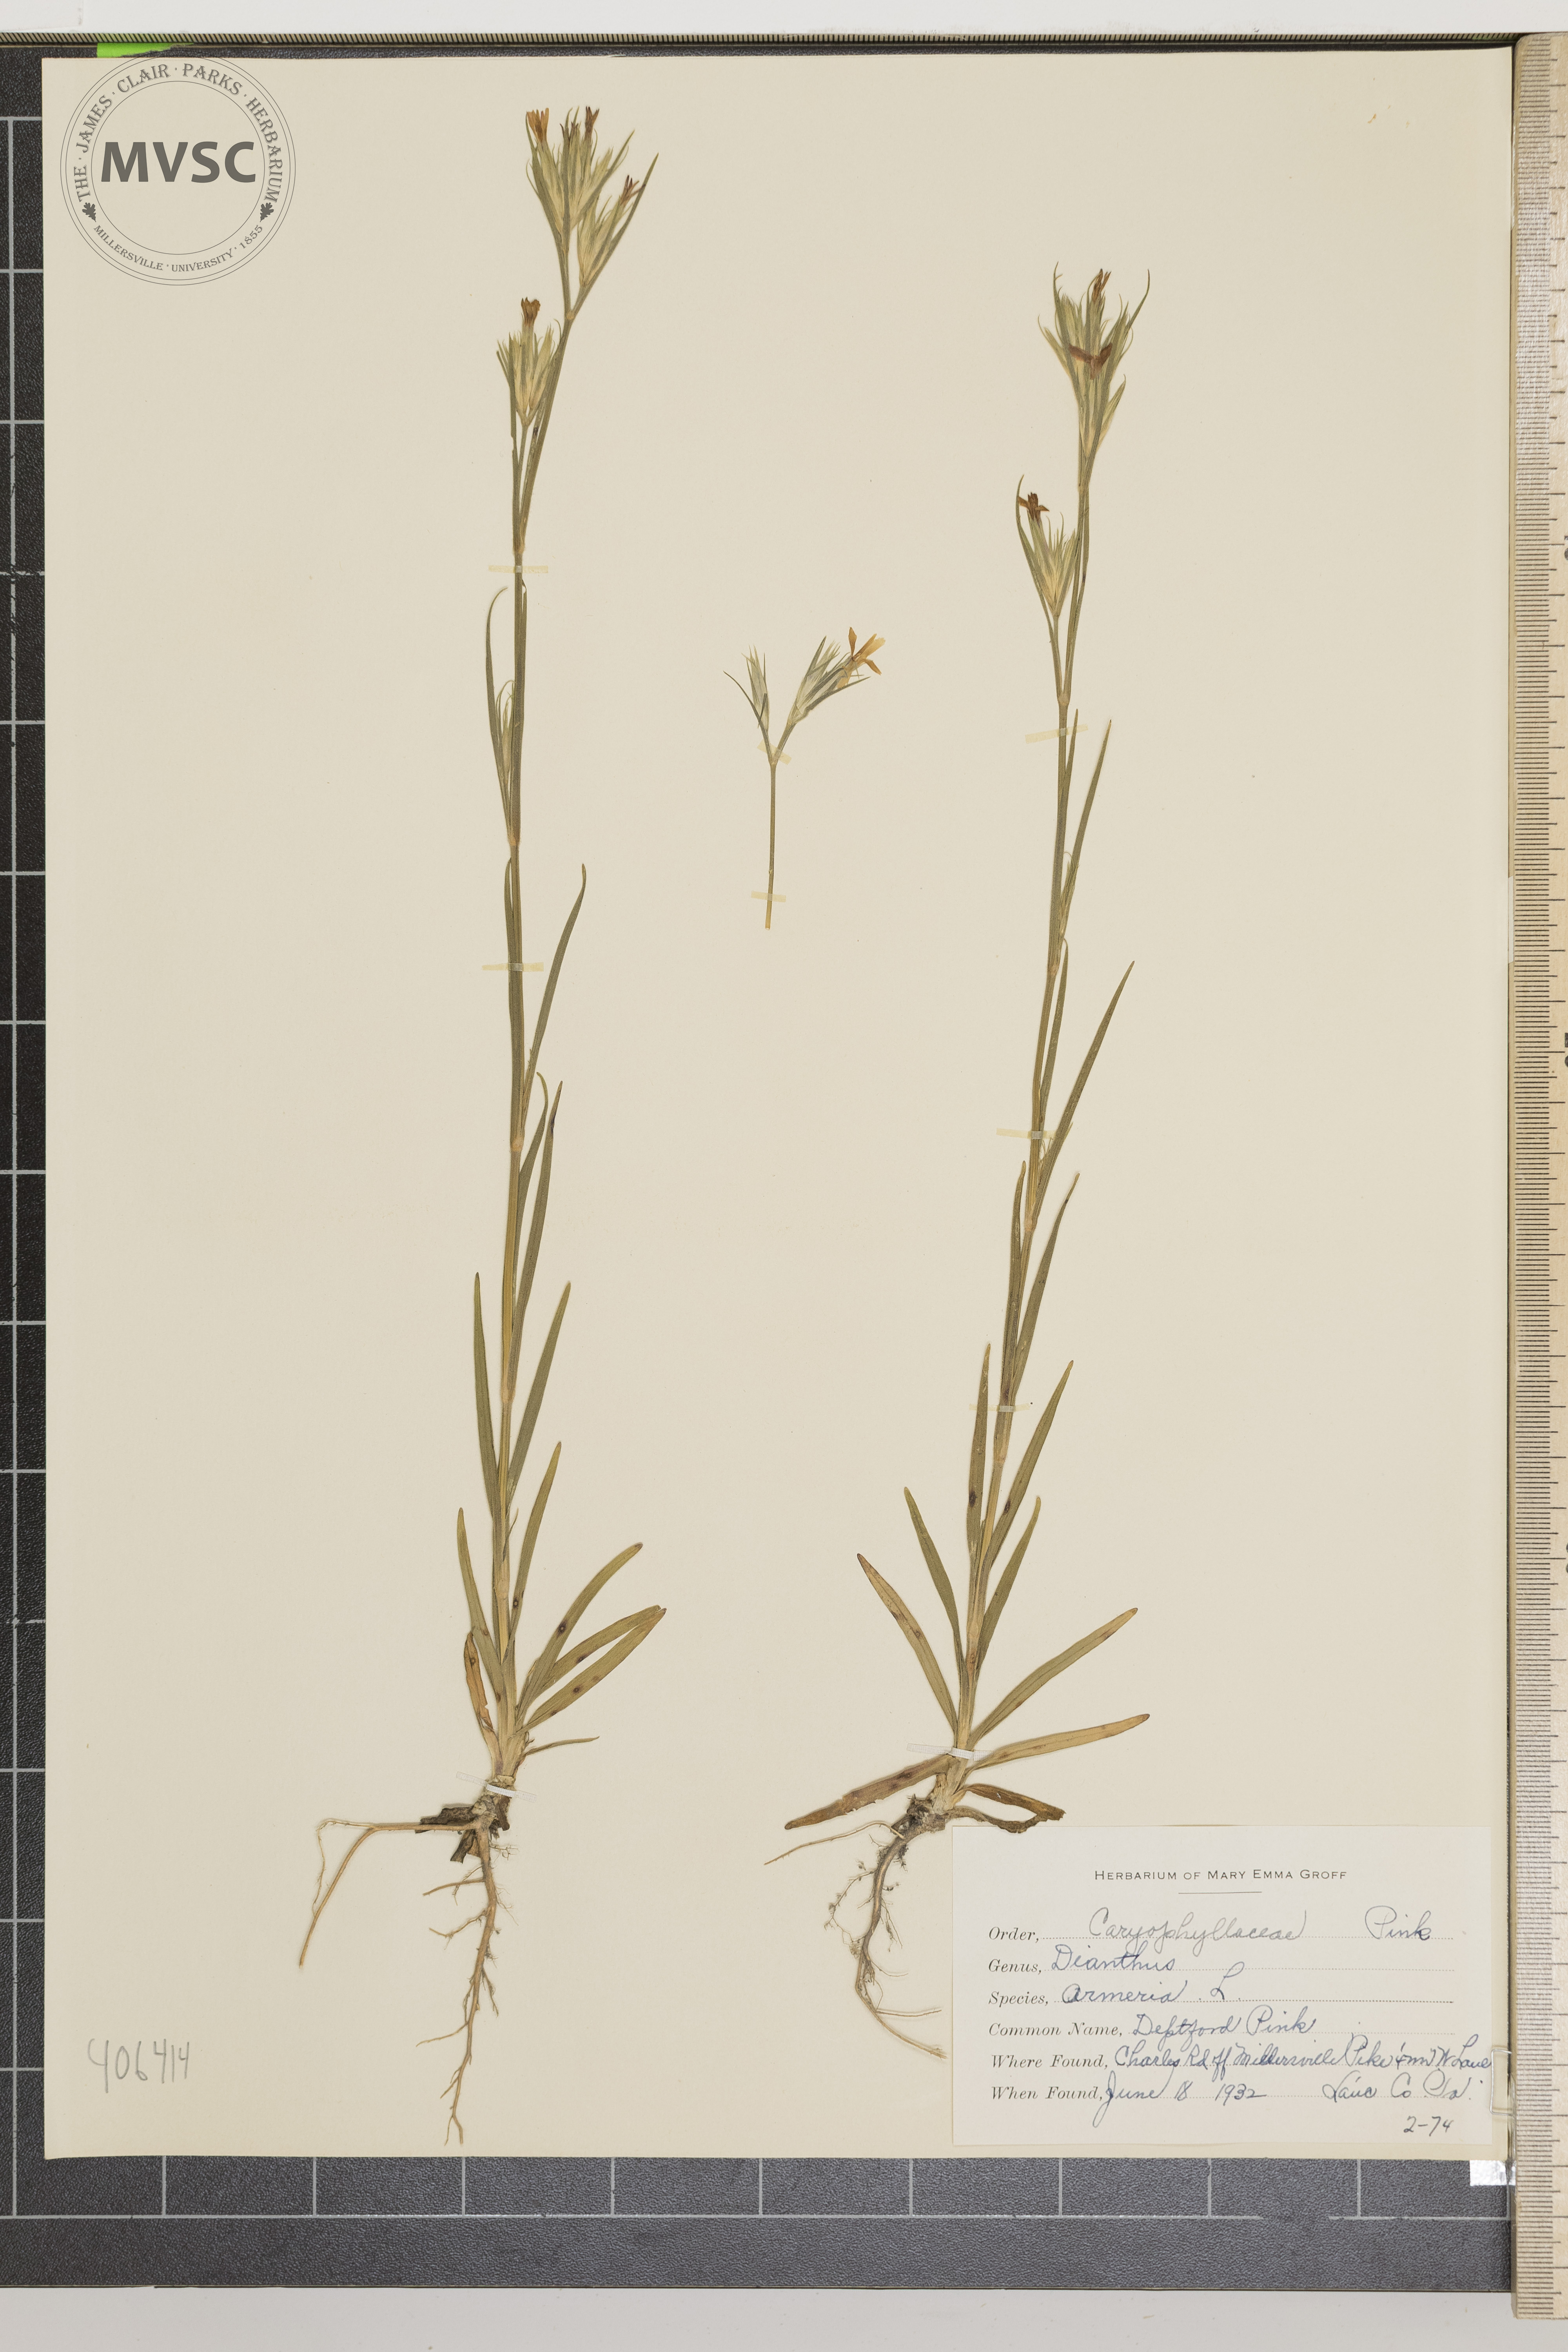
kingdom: Plantae
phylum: Tracheophyta
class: Magnoliopsida
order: Caryophyllales
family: Caryophyllaceae
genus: Dianthus
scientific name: Dianthus armeria
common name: Deptford Pink
